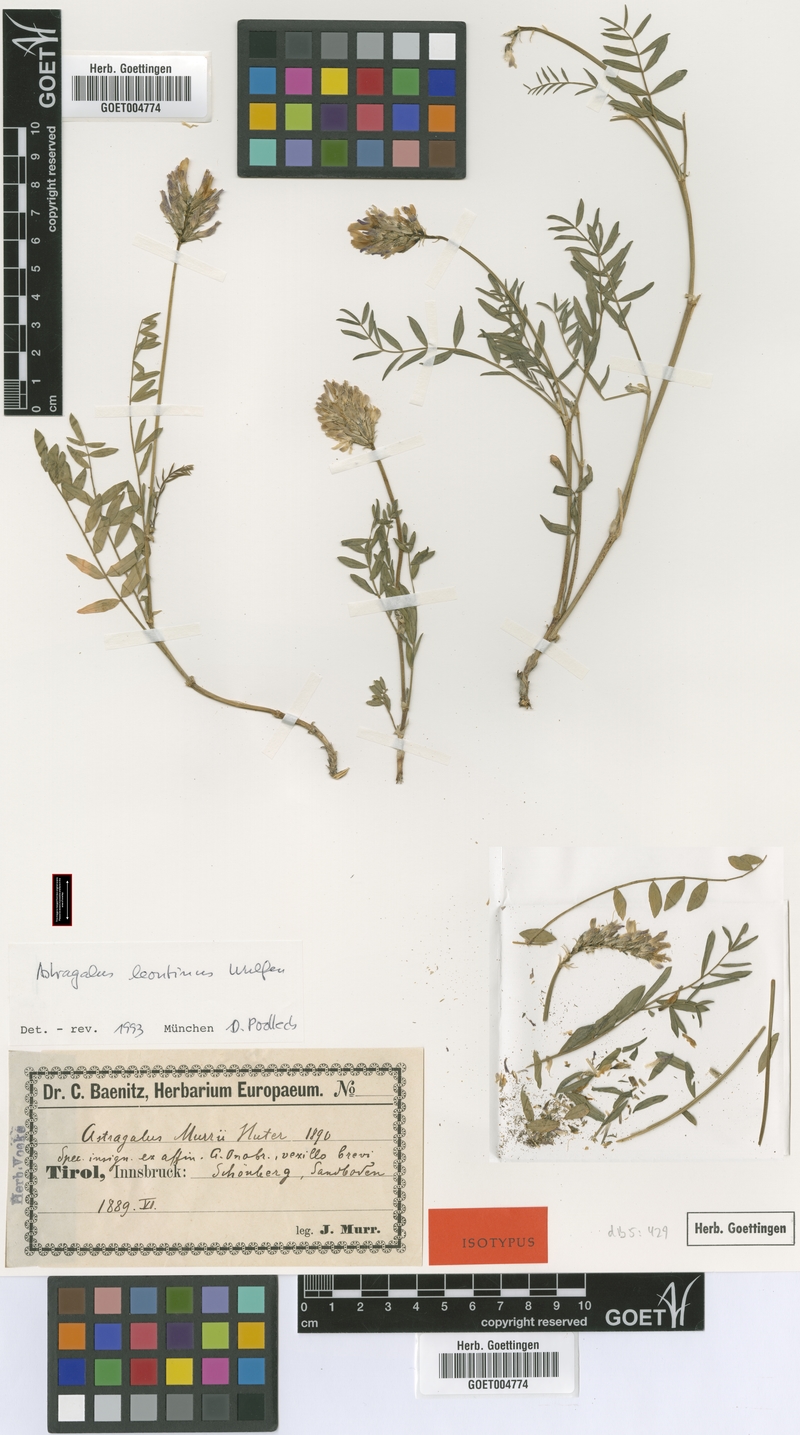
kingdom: Plantae
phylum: Tracheophyta
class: Magnoliopsida
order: Fabales
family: Fabaceae
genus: Astragalus
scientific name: Astragalus leontinus
